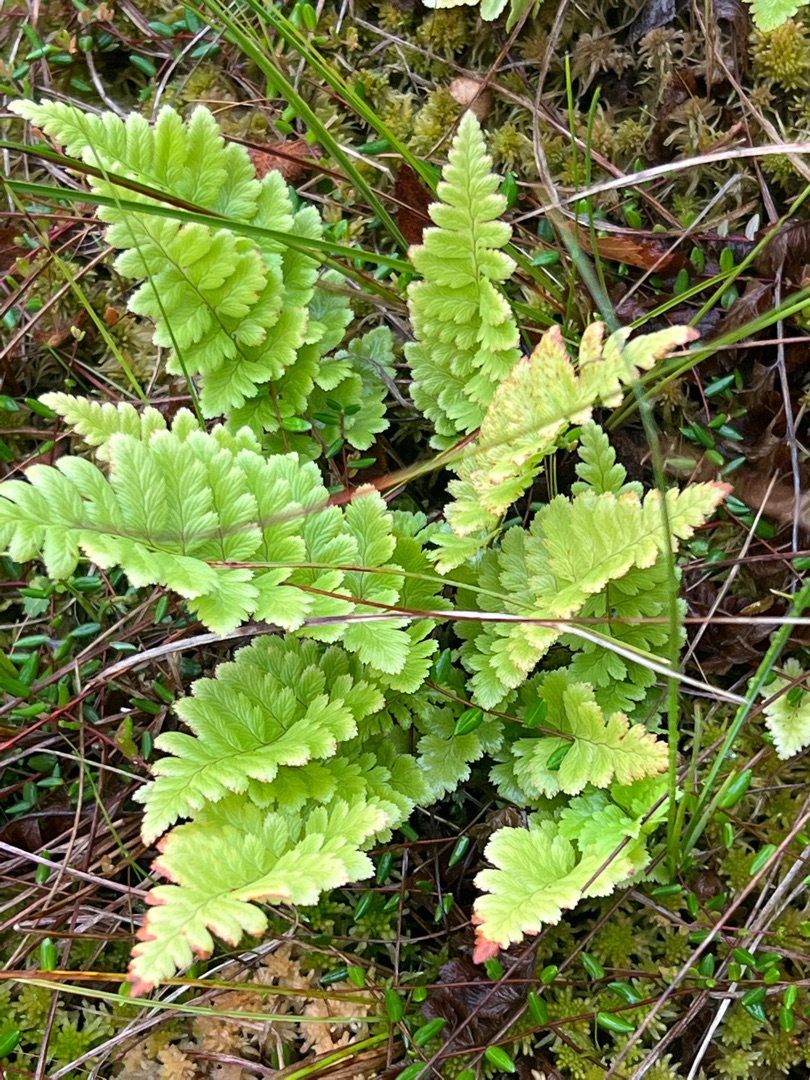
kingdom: Plantae
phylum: Tracheophyta
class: Polypodiopsida
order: Polypodiales
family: Dryopteridaceae
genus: Dryopteris
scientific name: Dryopteris cristata
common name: Butfinnet mangeløv
